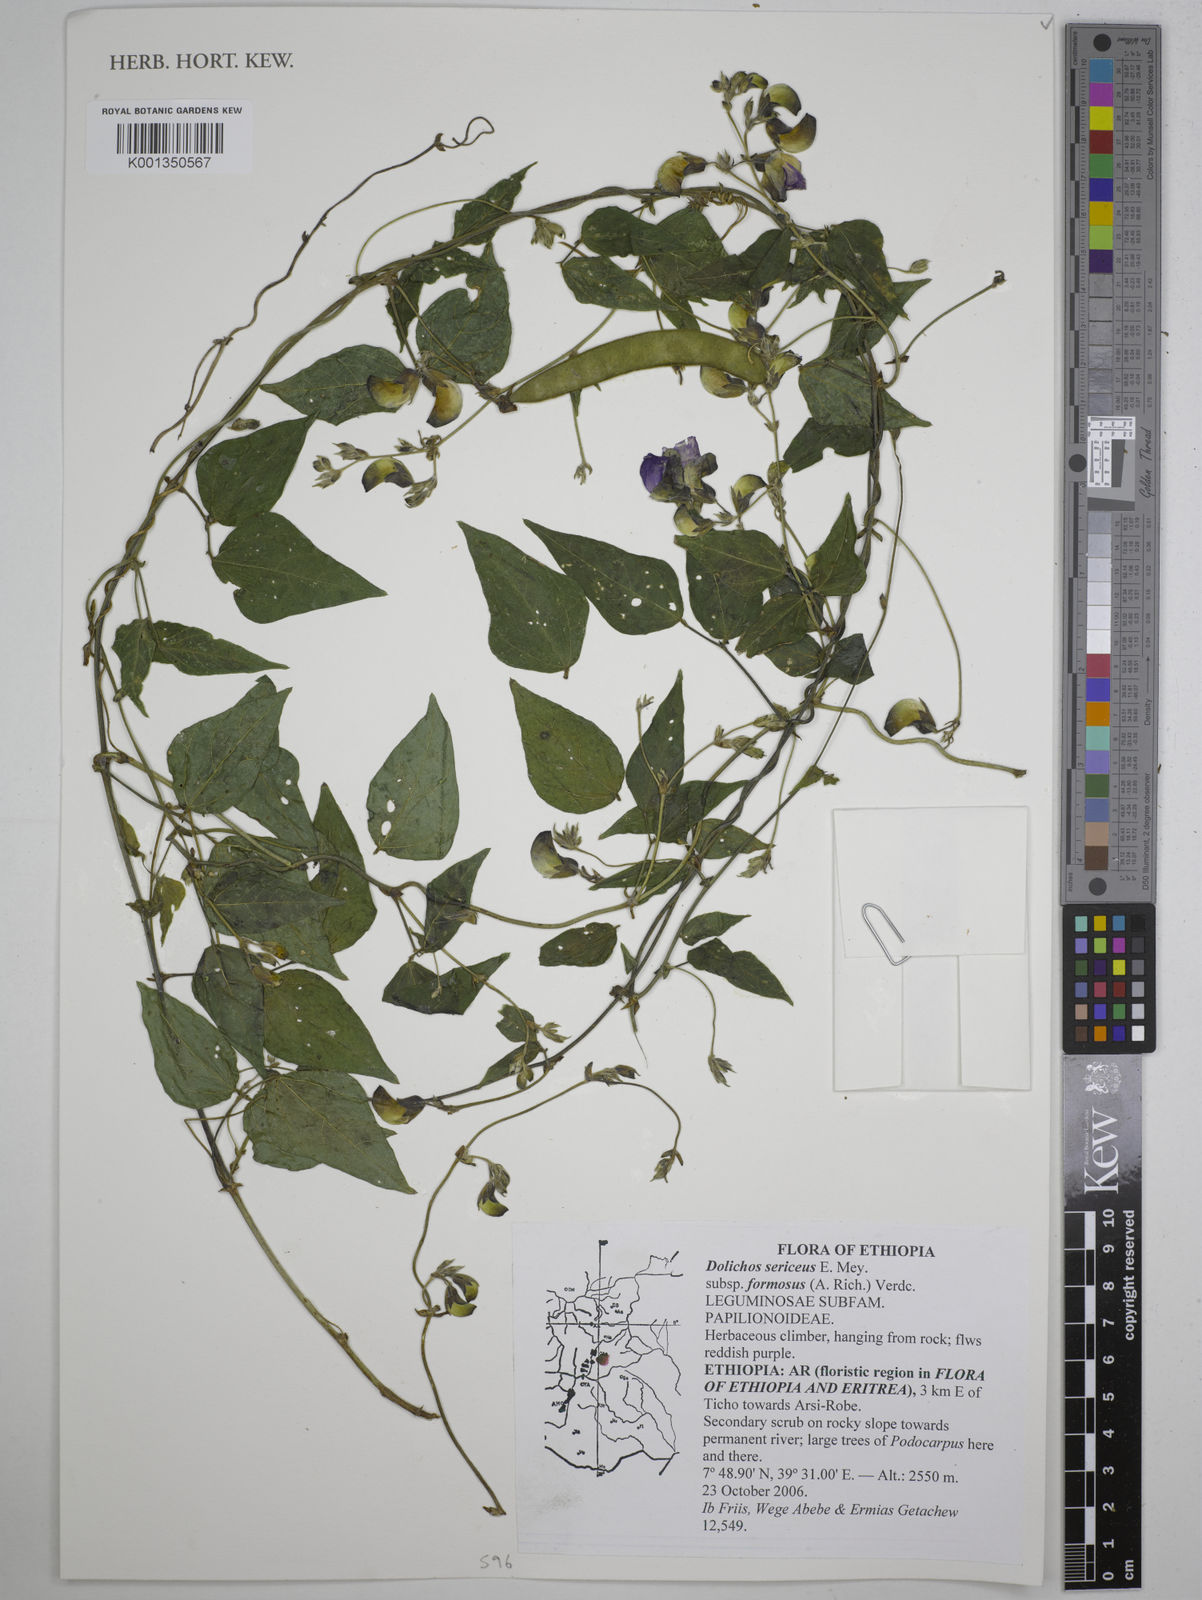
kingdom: Plantae
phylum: Tracheophyta
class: Magnoliopsida
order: Fabales
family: Fabaceae
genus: Dolichos
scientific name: Dolichos
